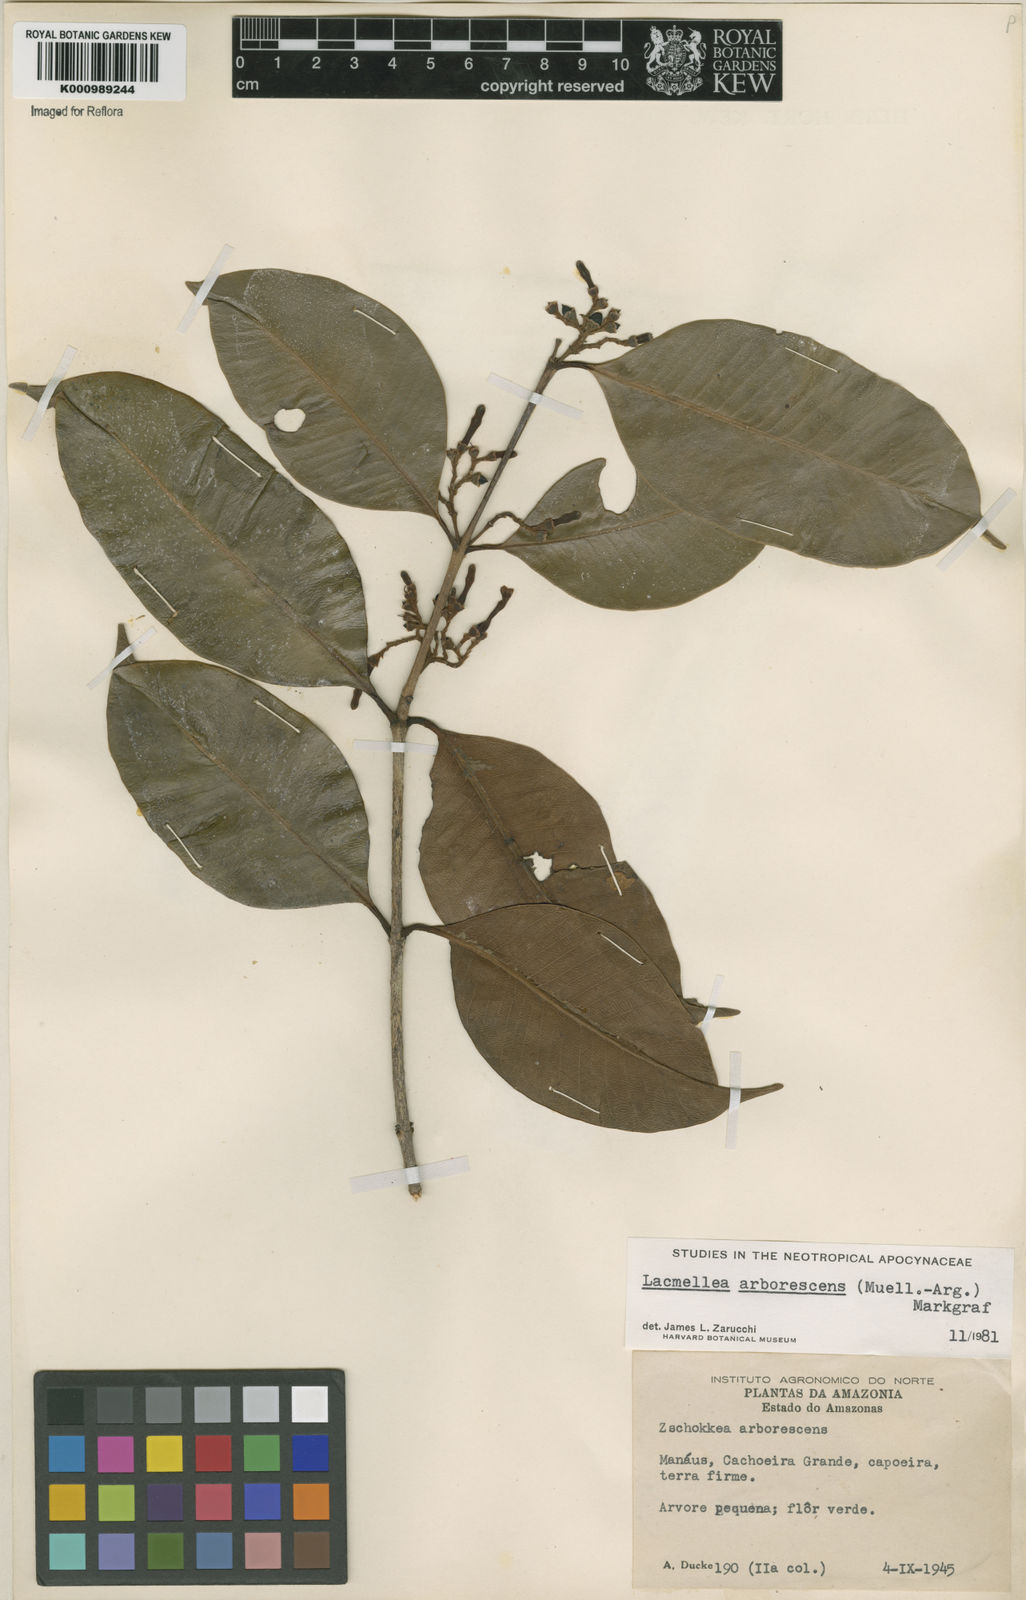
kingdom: Plantae
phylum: Tracheophyta
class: Magnoliopsida
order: Gentianales
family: Apocynaceae
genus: Lacmellea
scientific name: Lacmellea
